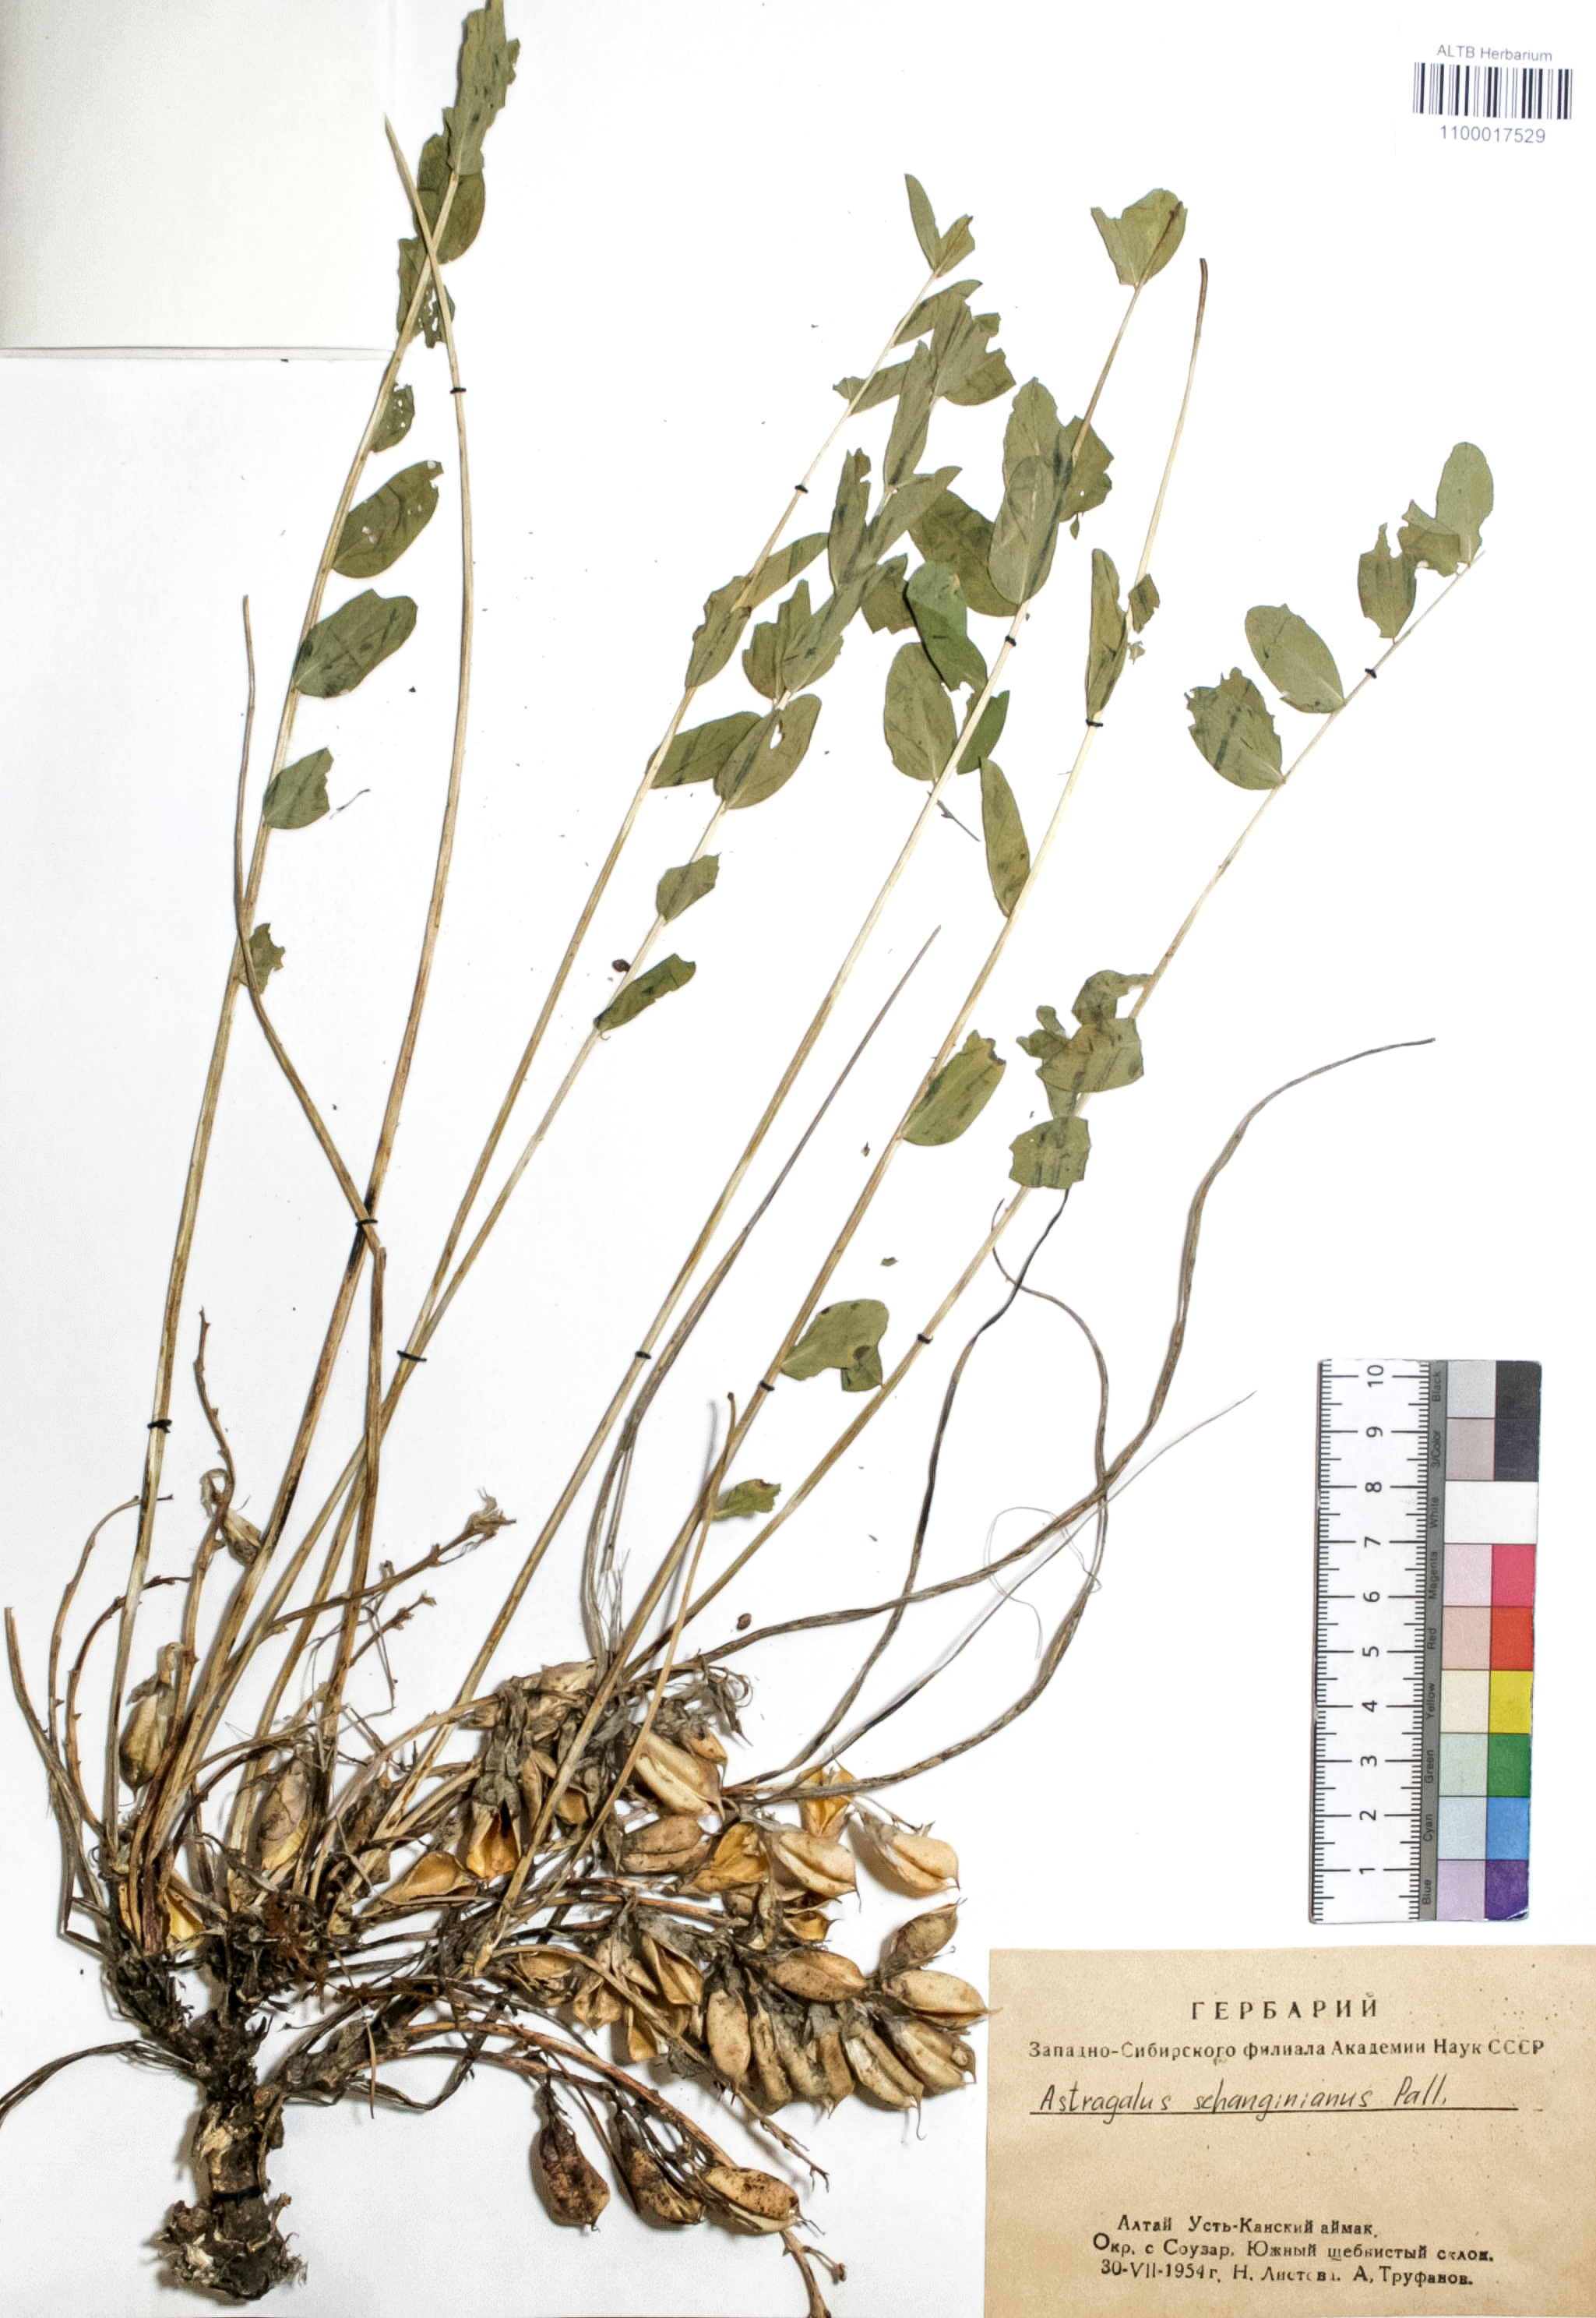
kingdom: Plantae
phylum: Tracheophyta
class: Magnoliopsida
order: Fabales
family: Fabaceae
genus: Astragalus
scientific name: Astragalus schanginianus
